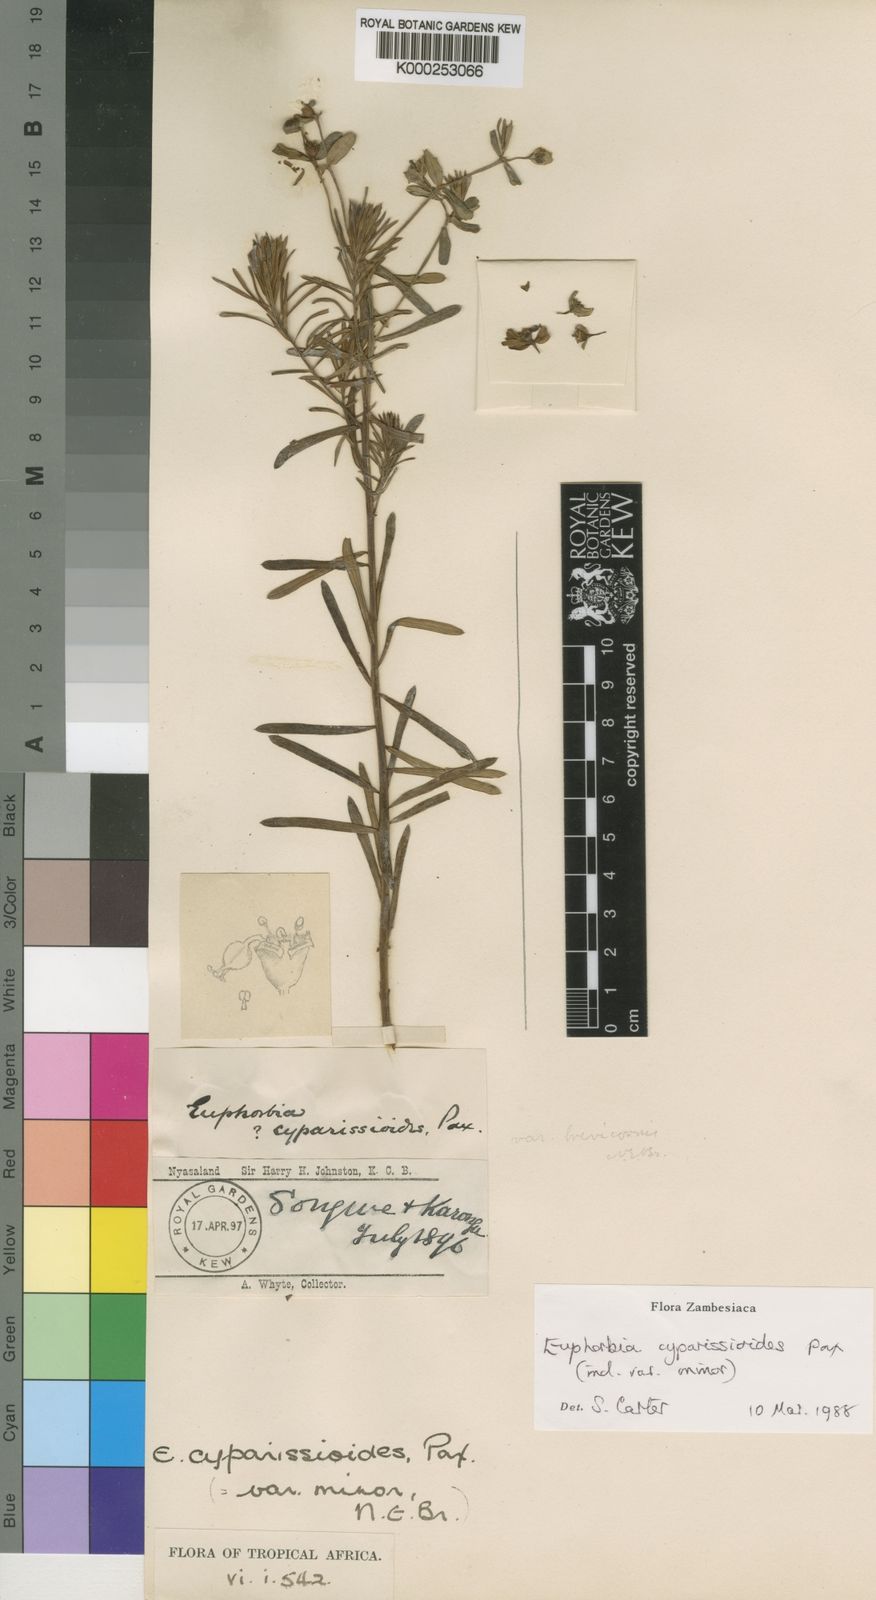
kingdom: Plantae
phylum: Tracheophyta
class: Magnoliopsida
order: Malpighiales
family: Euphorbiaceae
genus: Euphorbia
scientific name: Euphorbia cyparissioides
